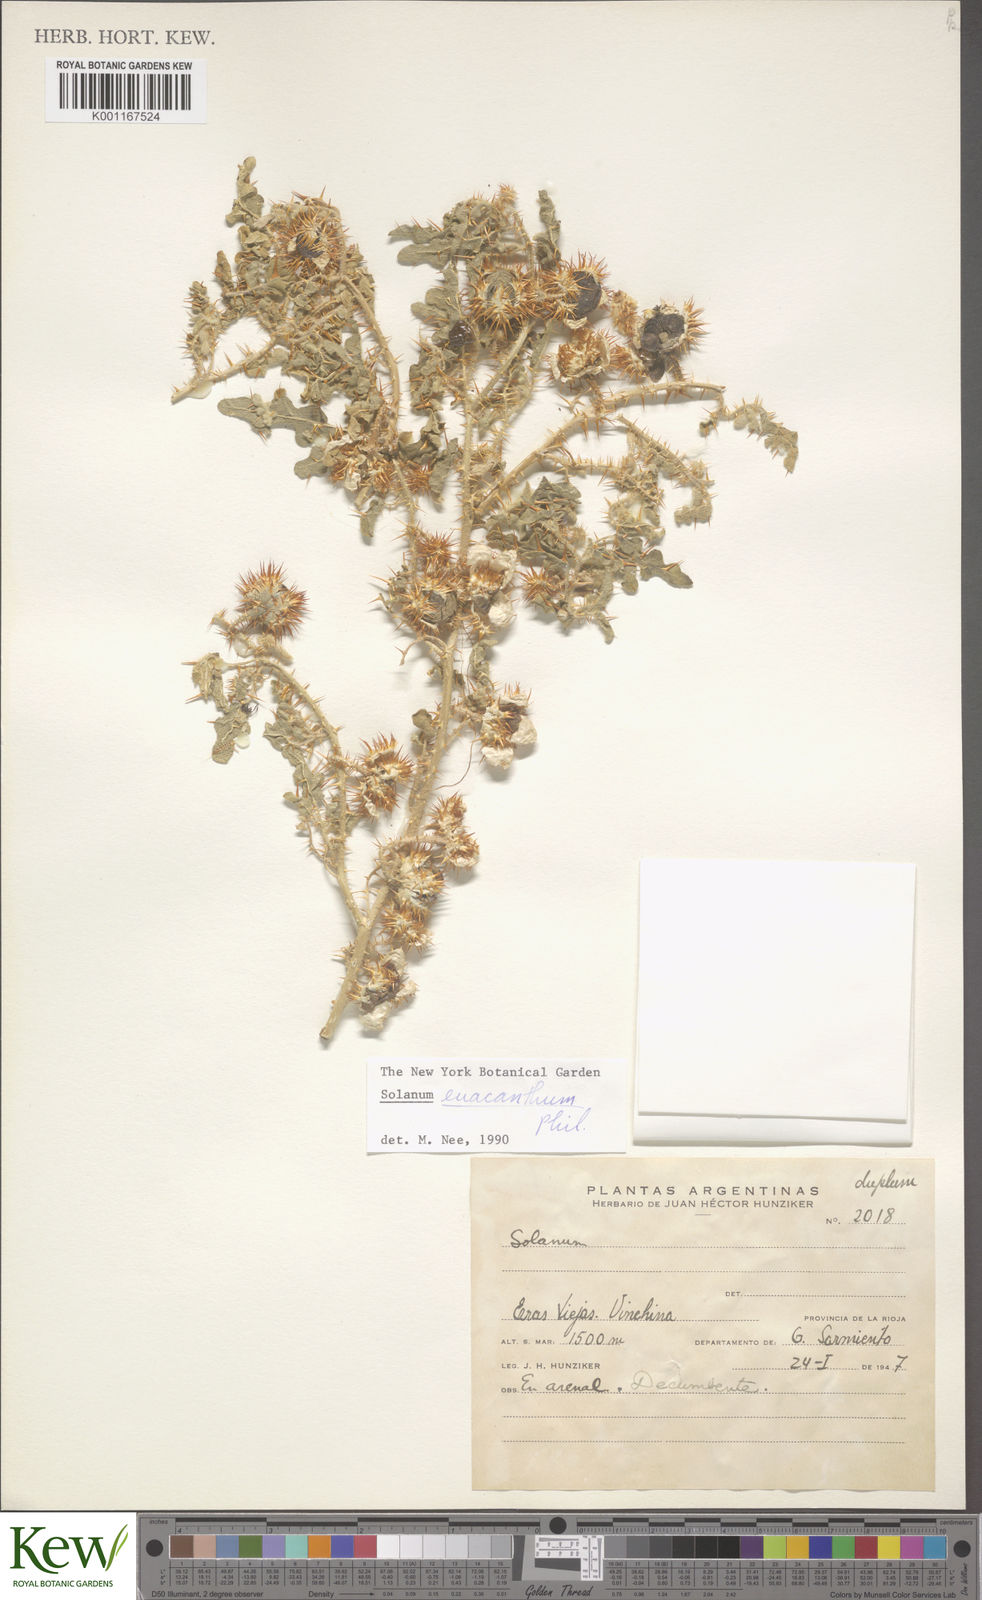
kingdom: Plantae
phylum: Tracheophyta
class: Magnoliopsida
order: Solanales
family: Solanaceae
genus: Solanum
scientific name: Solanum euacanthum
